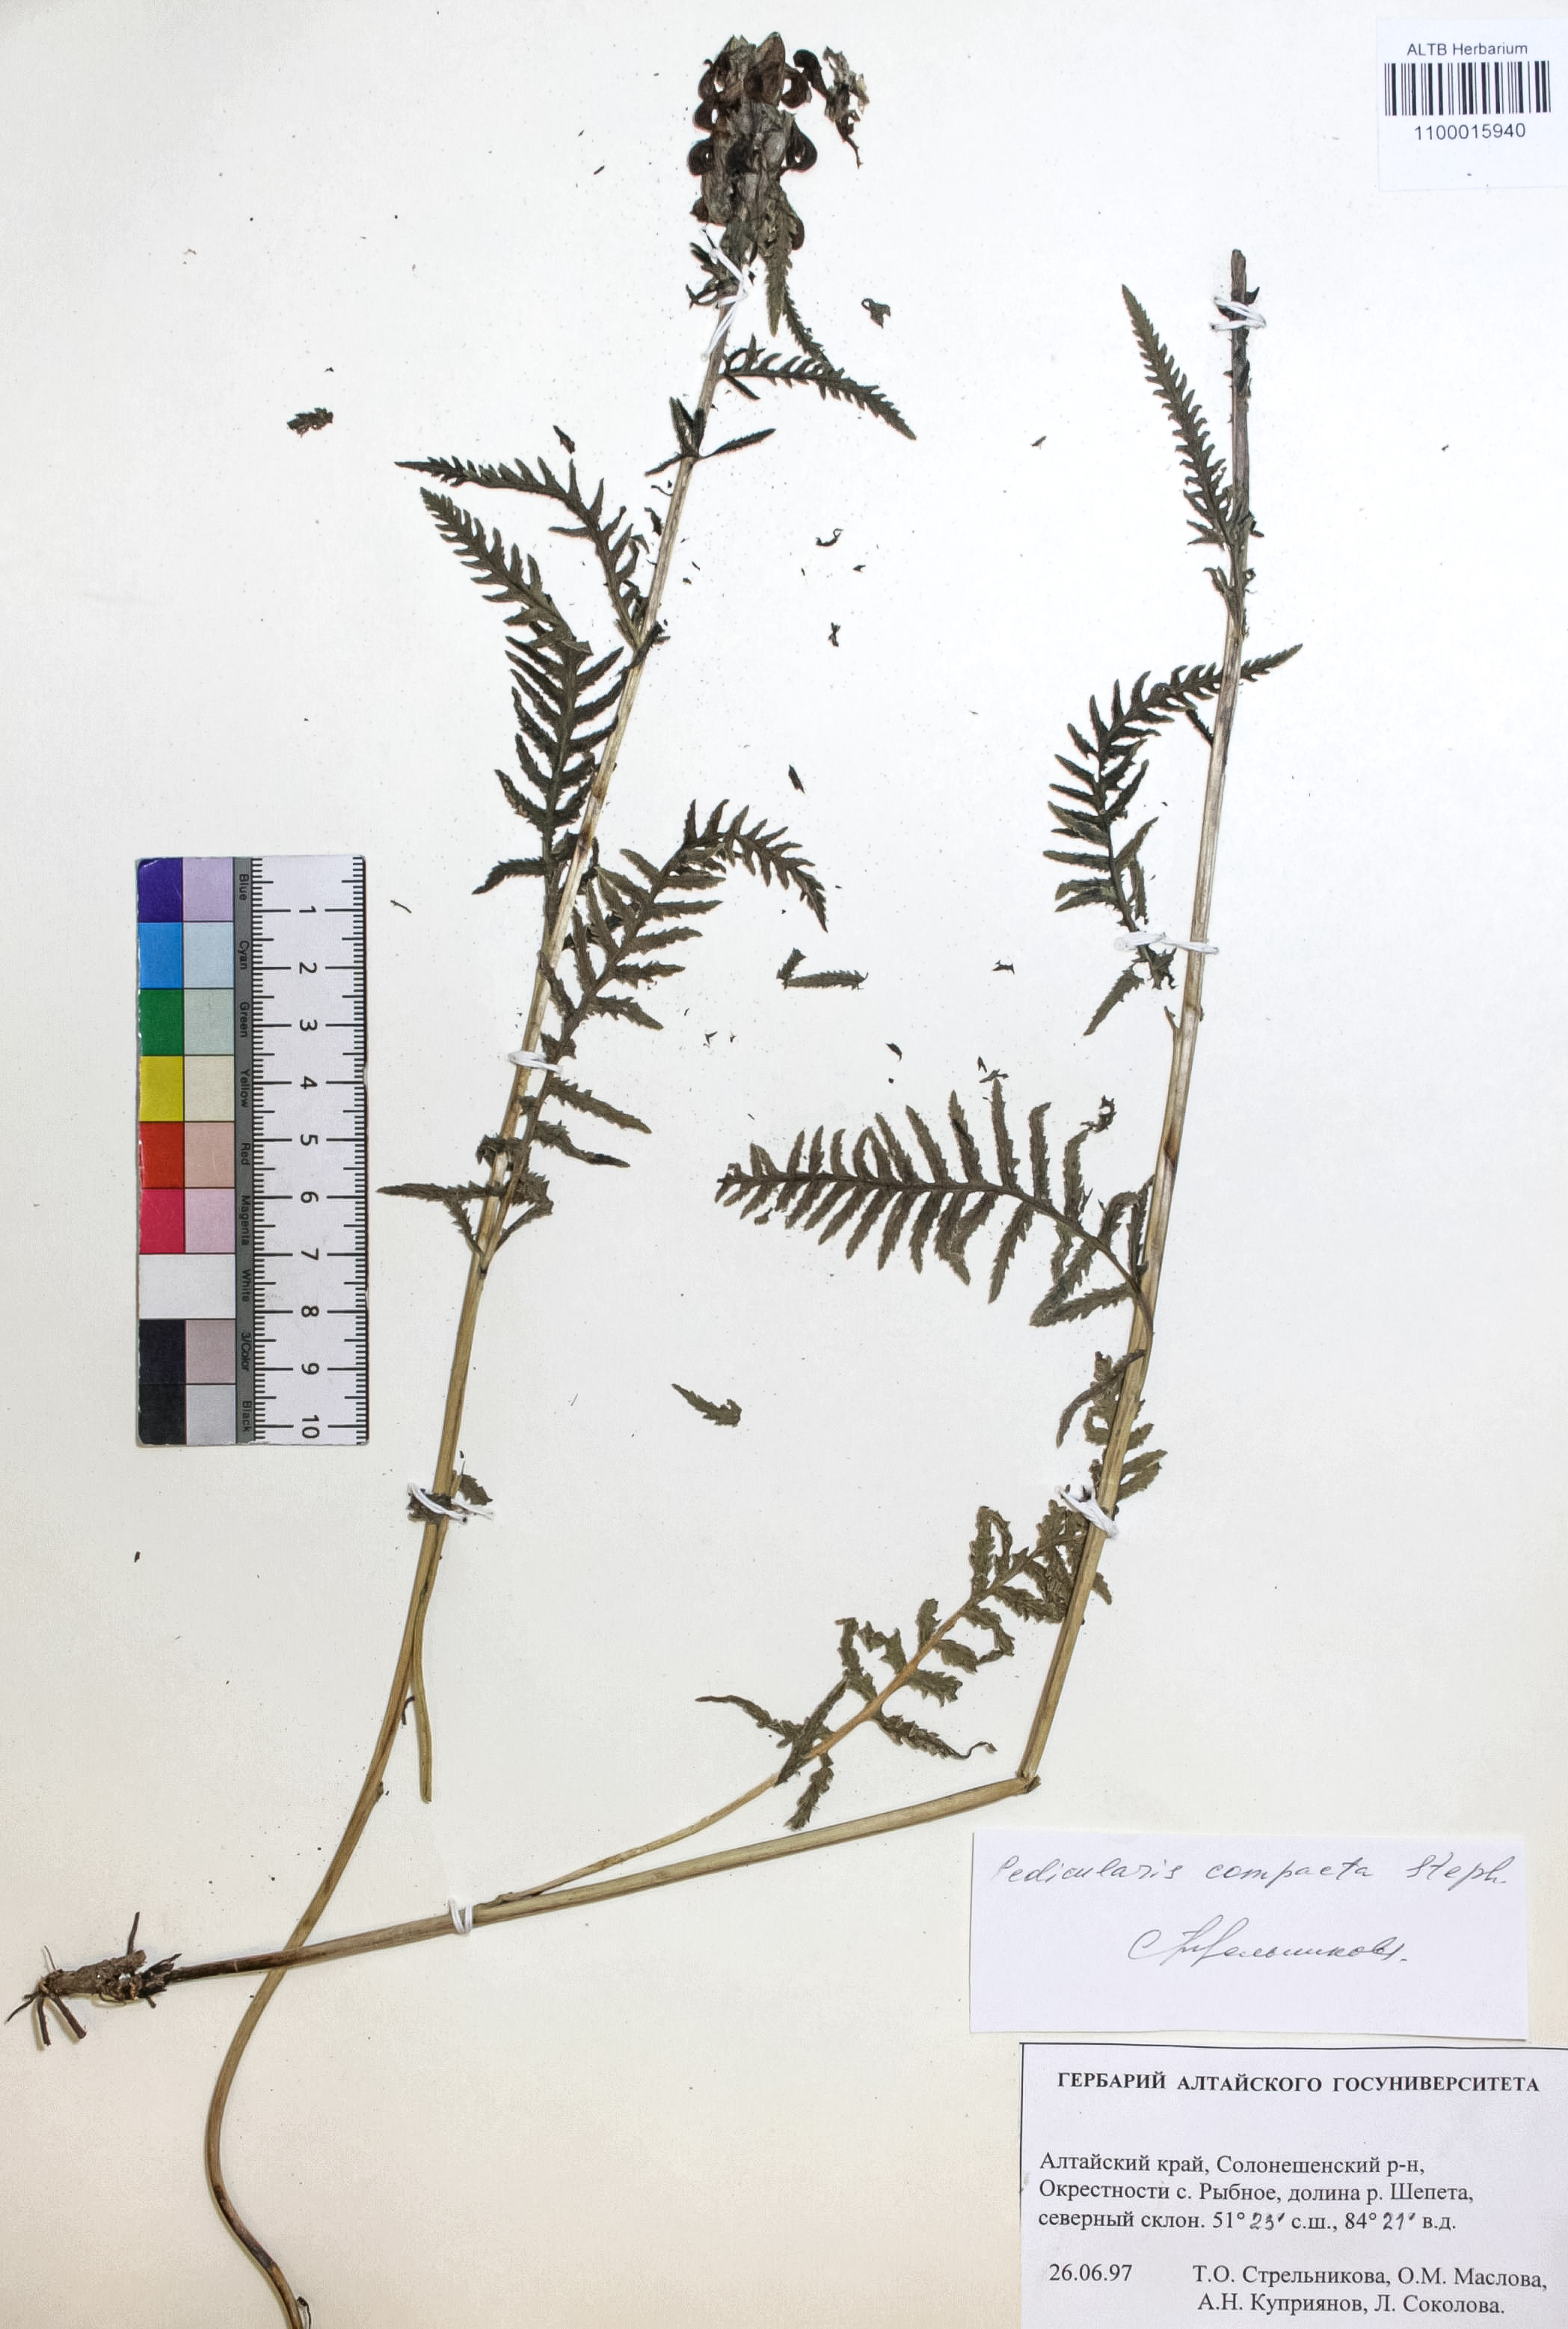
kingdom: Plantae
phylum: Tracheophyta
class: Magnoliopsida
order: Lamiales
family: Orobanchaceae
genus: Pedicularis
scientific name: Pedicularis compacta
